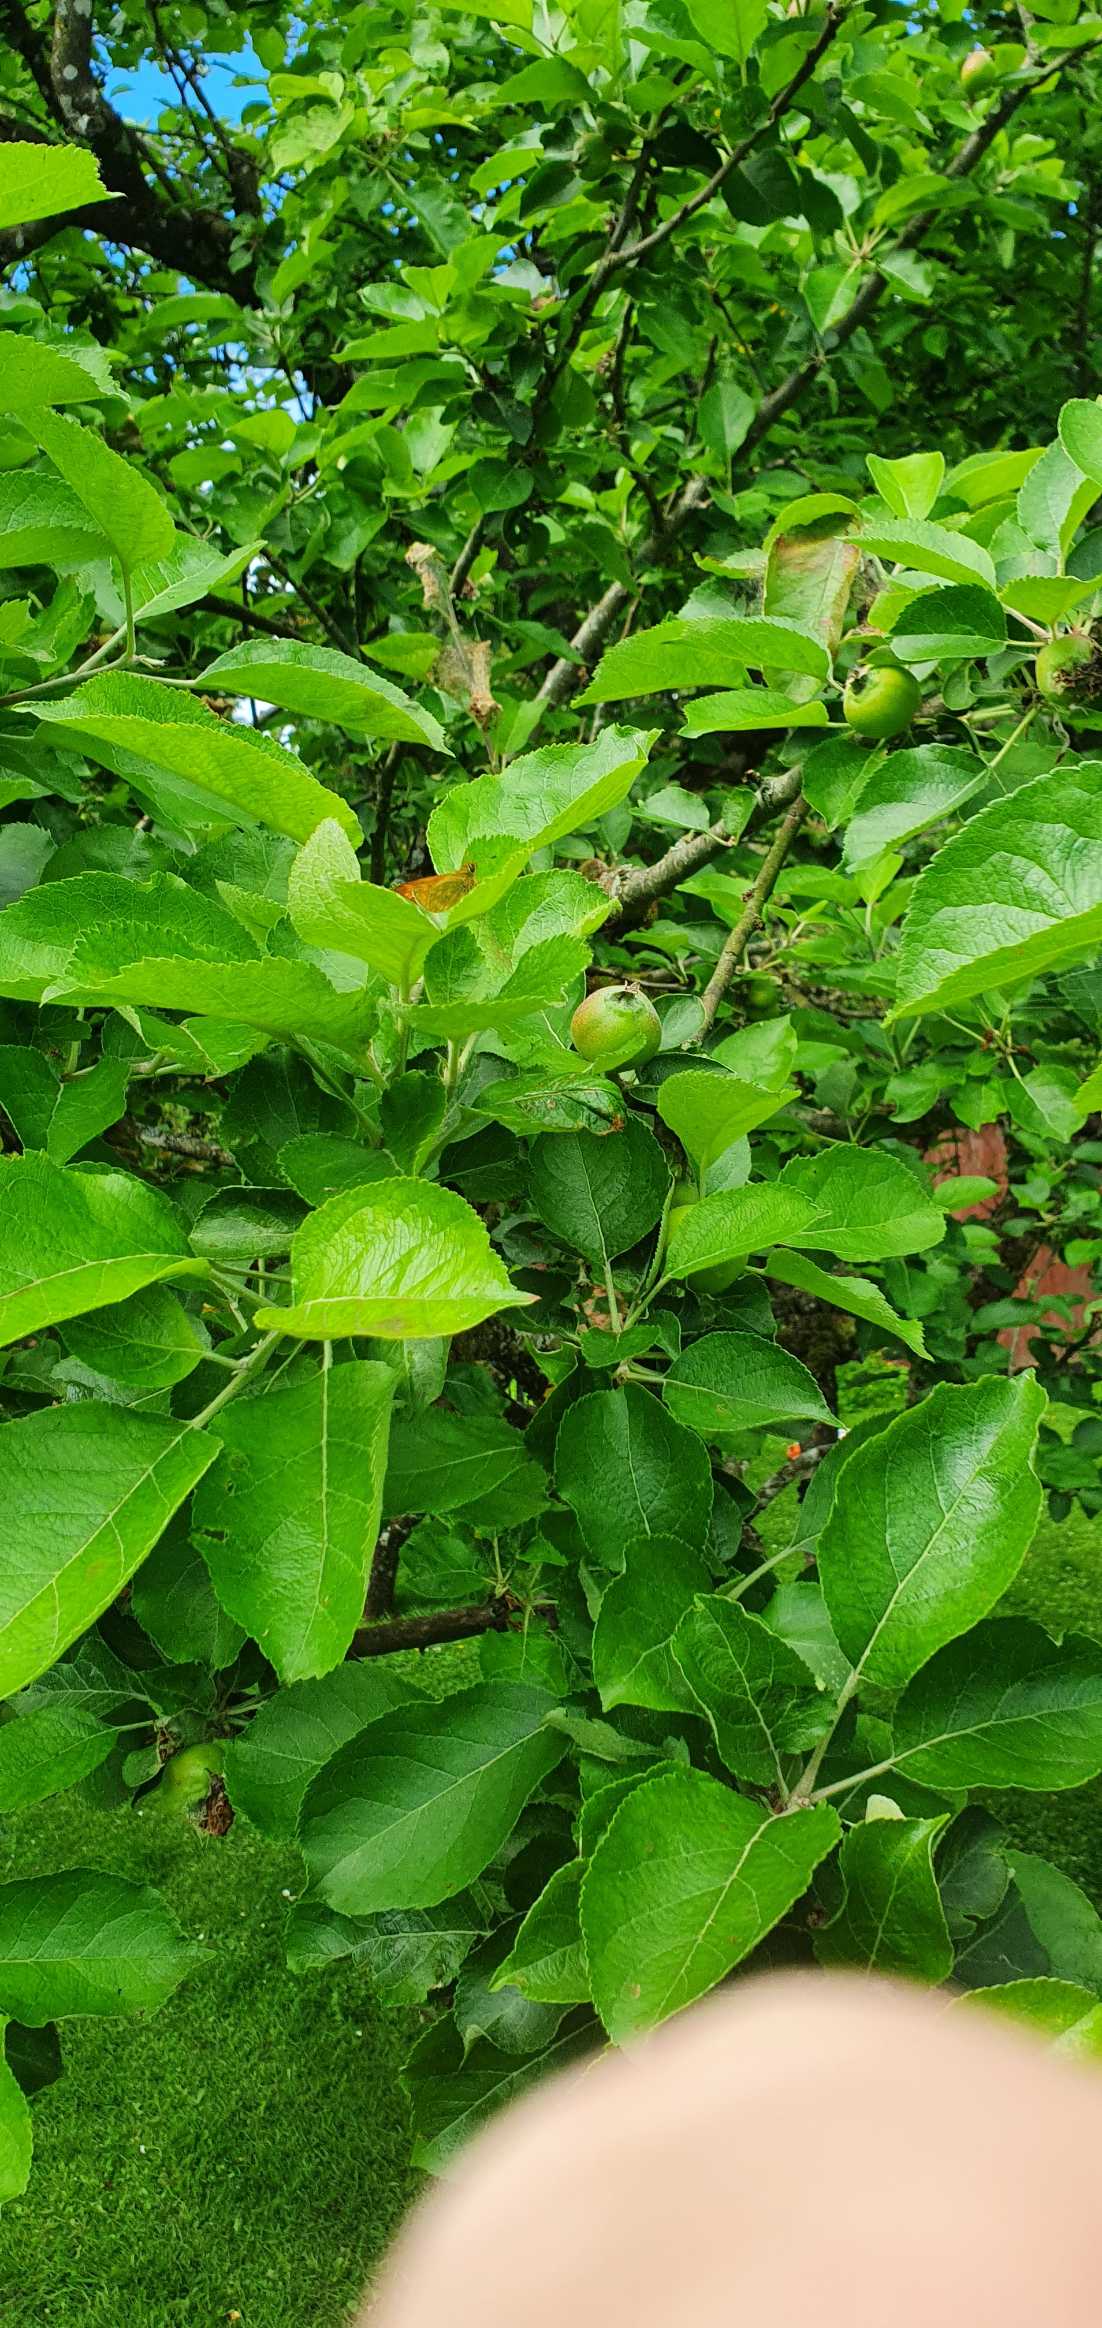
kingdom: Animalia
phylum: Arthropoda
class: Insecta
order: Lepidoptera
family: Hesperiidae
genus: Ochlodes
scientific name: Ochlodes venata
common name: Stor bredpande
